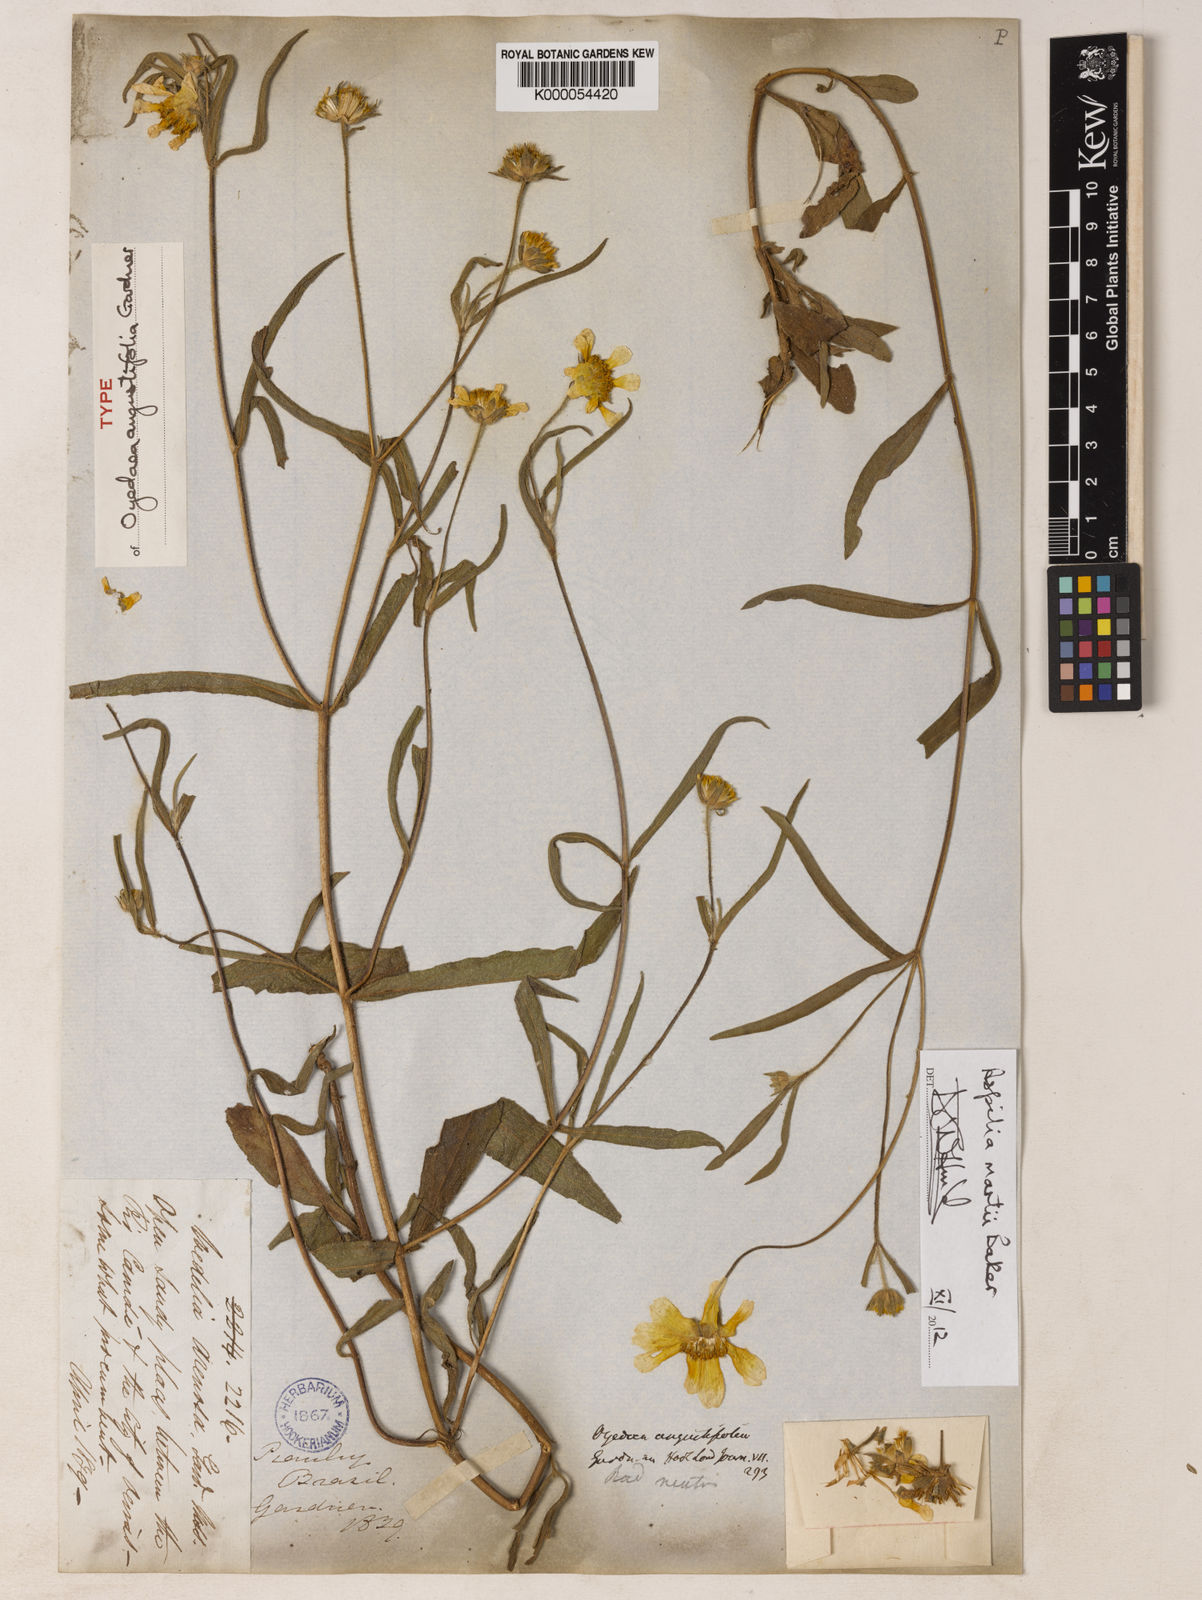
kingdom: Plantae
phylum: Tracheophyta
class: Magnoliopsida
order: Asterales
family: Asteraceae
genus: Wedelia
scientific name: Wedelia martii
